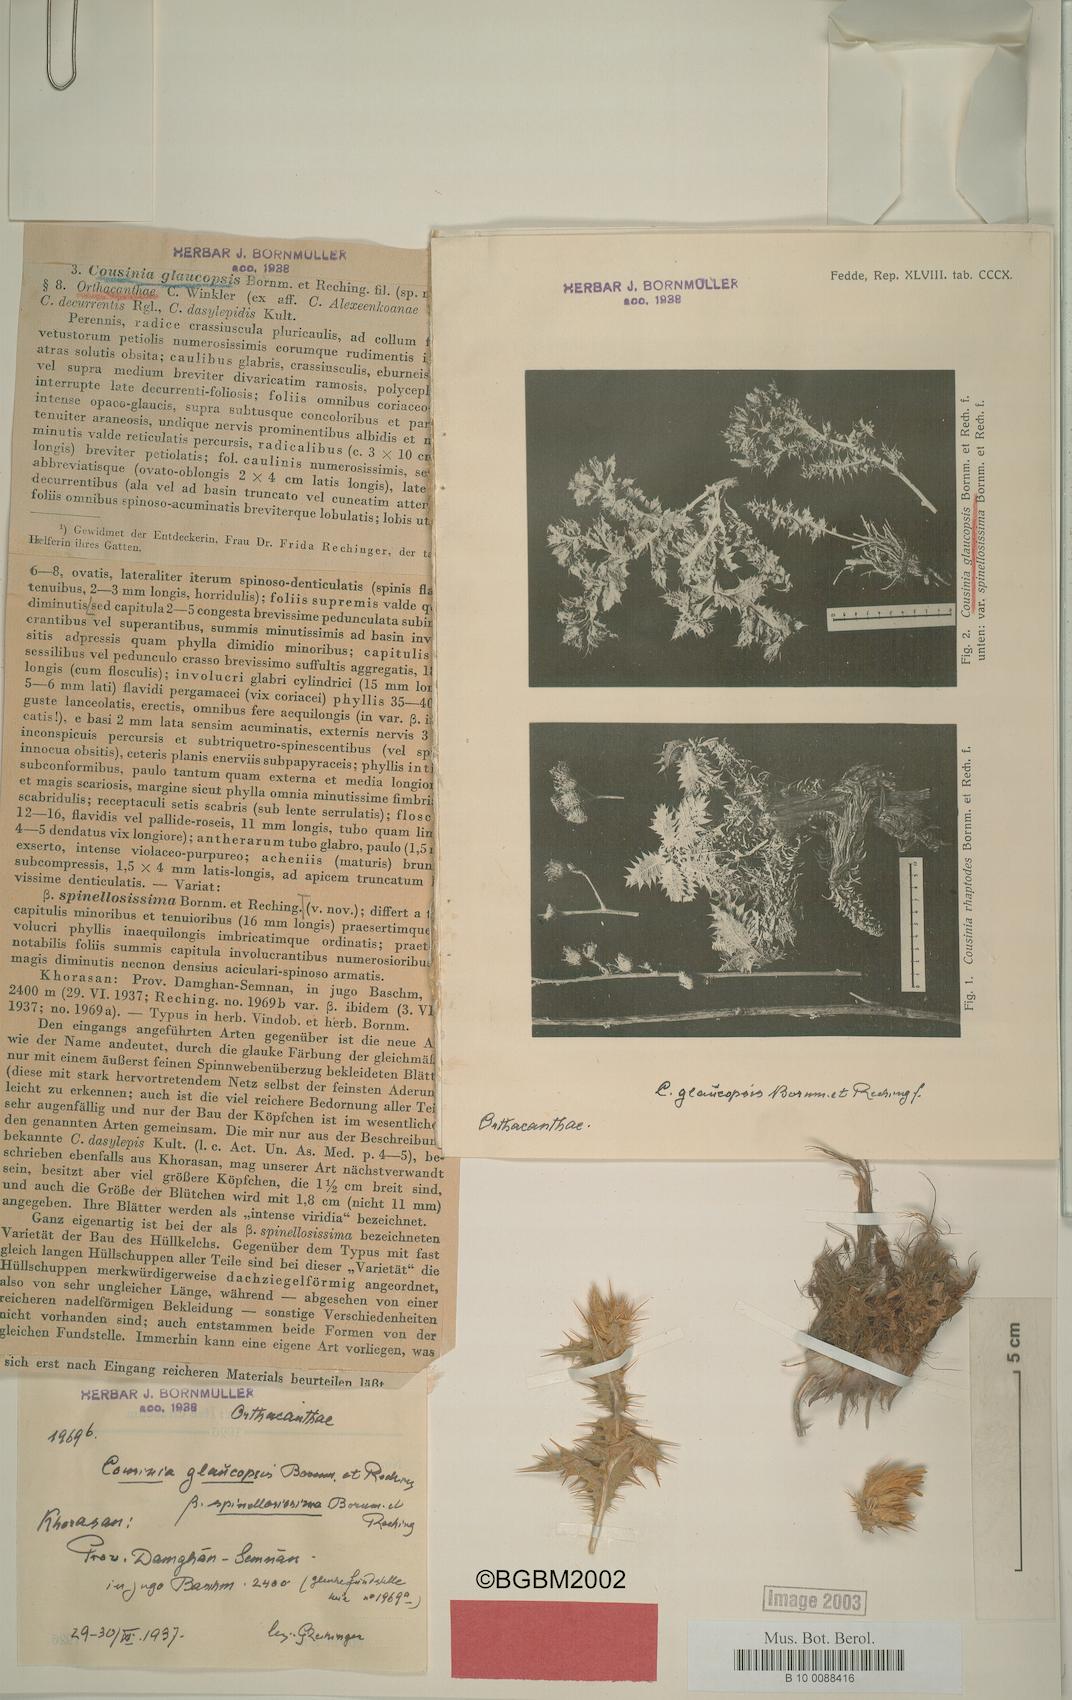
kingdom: Plantae
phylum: Tracheophyta
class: Magnoliopsida
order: Asterales
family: Asteraceae
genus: Cousinia
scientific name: Cousinia glaucopsis
